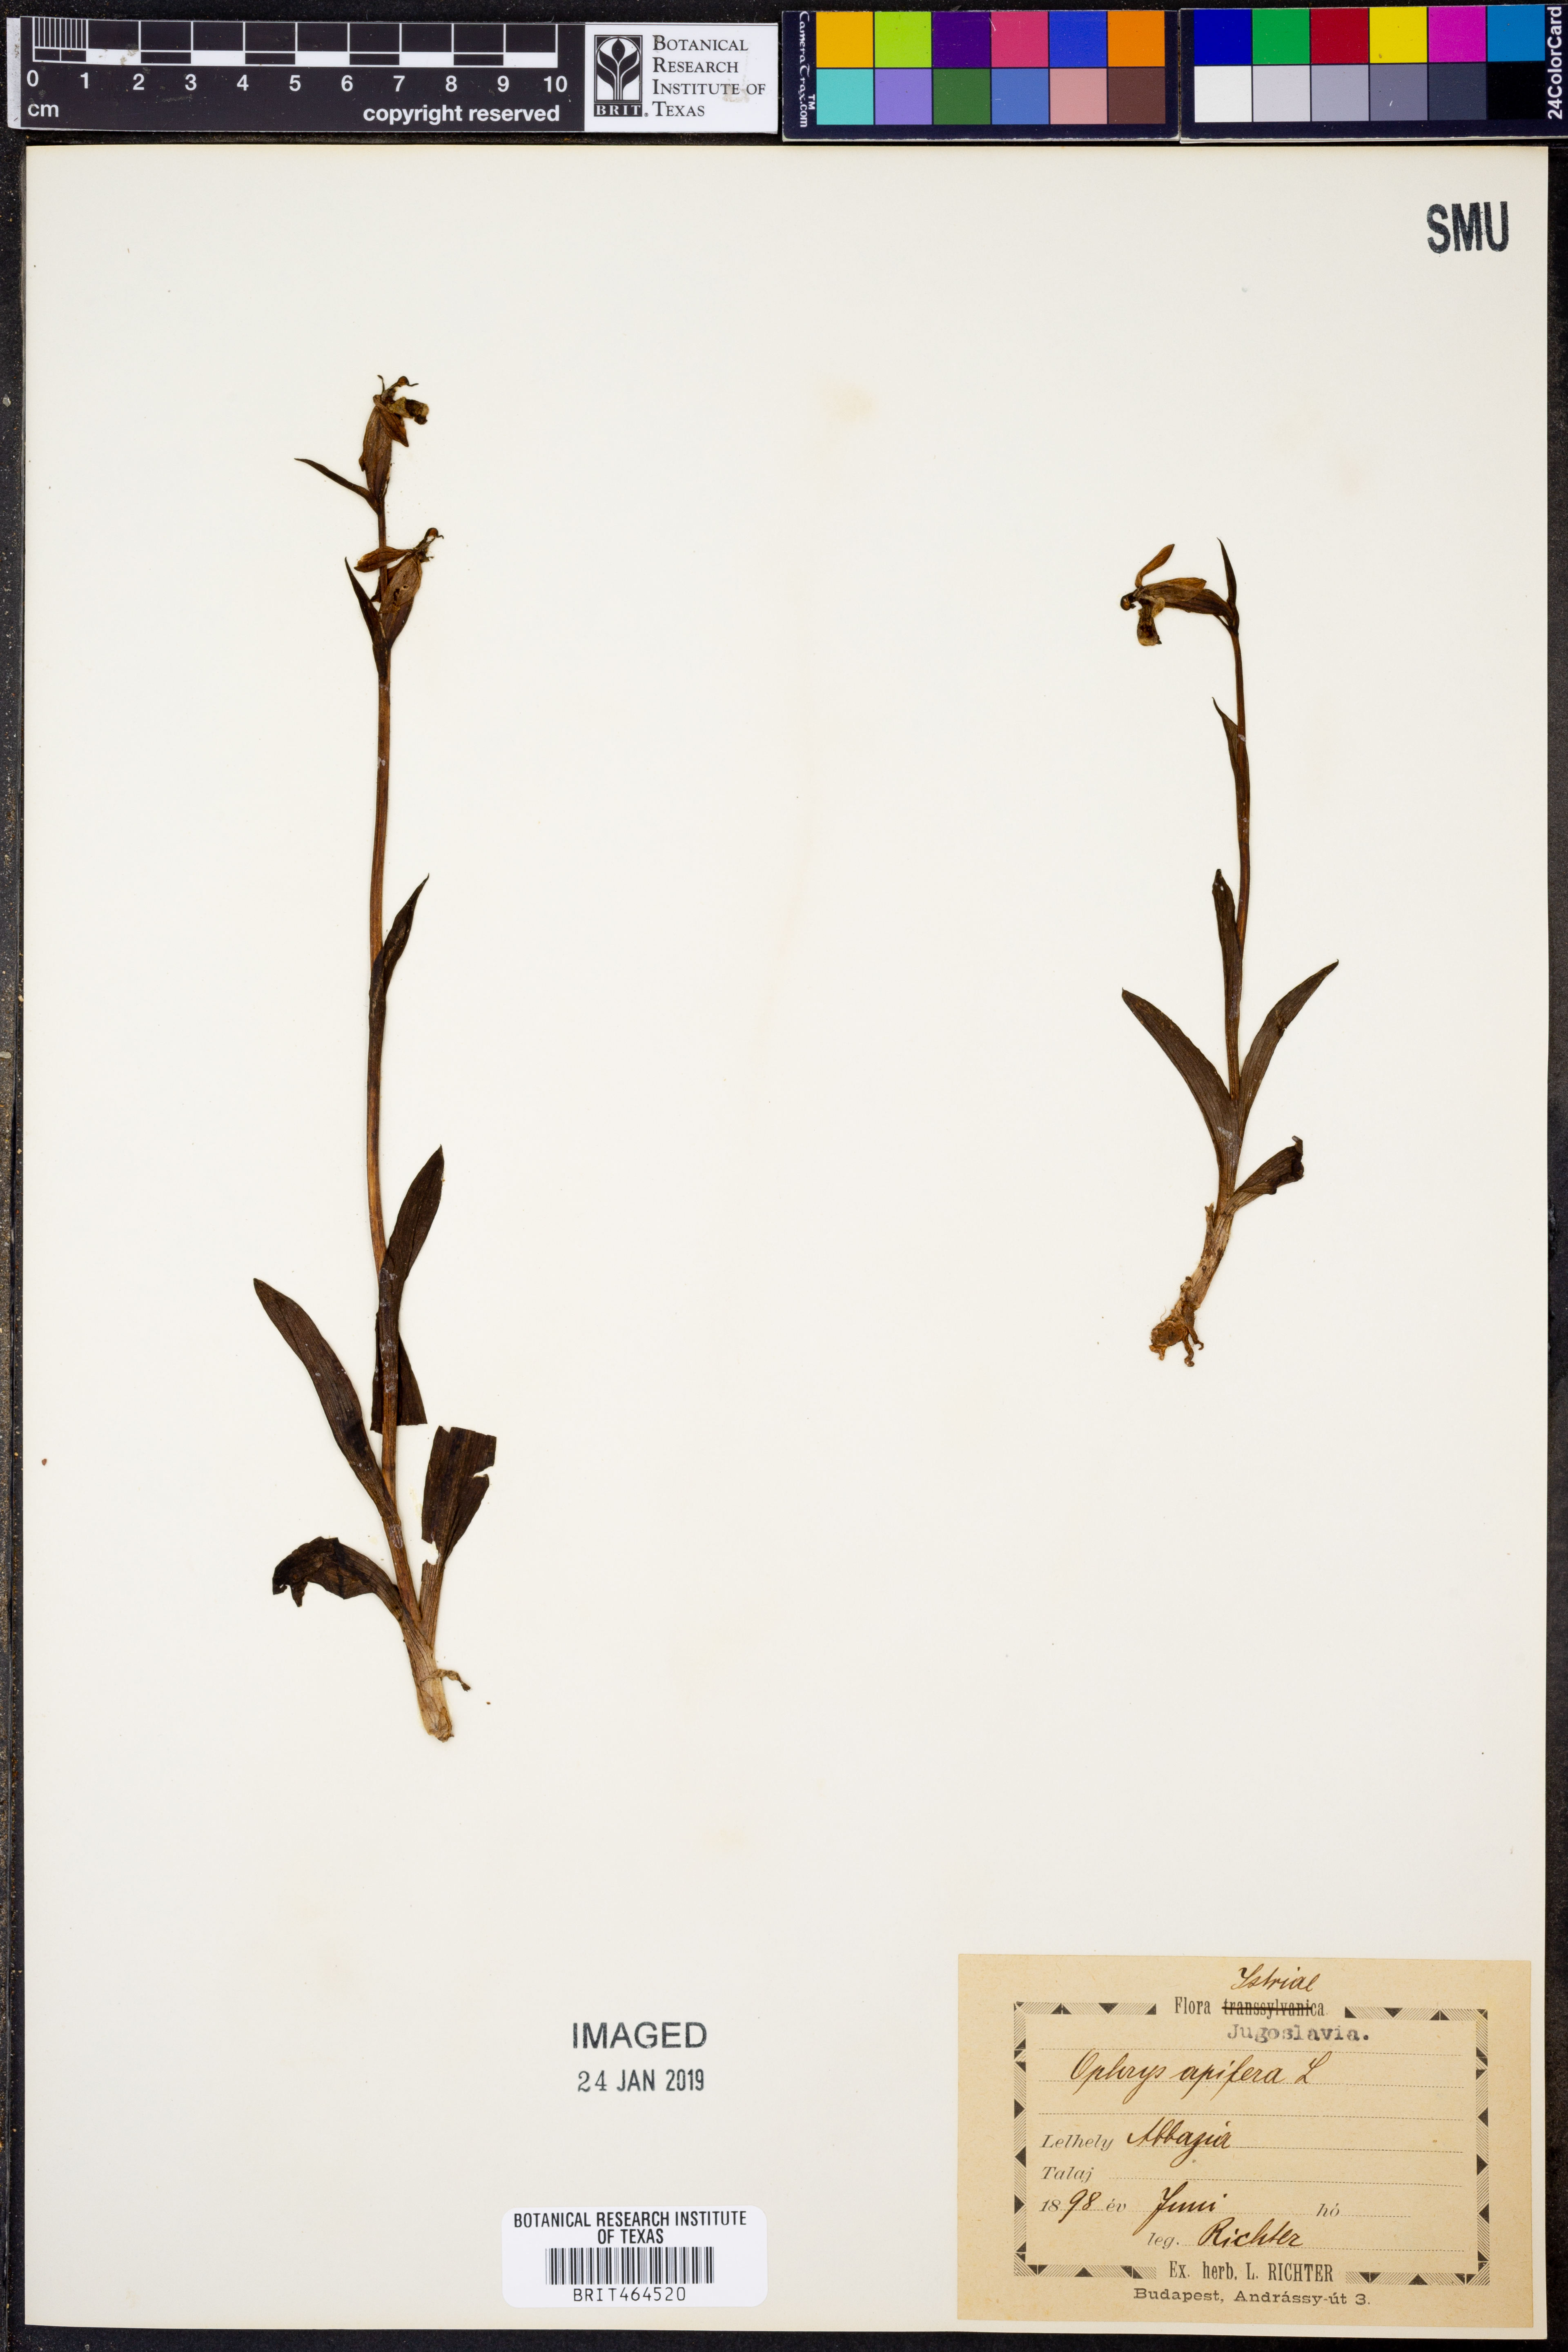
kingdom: Plantae
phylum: Tracheophyta
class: Liliopsida
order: Asparagales
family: Orchidaceae
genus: Ophrys
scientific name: Ophrys apifera
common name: Bee orchid
